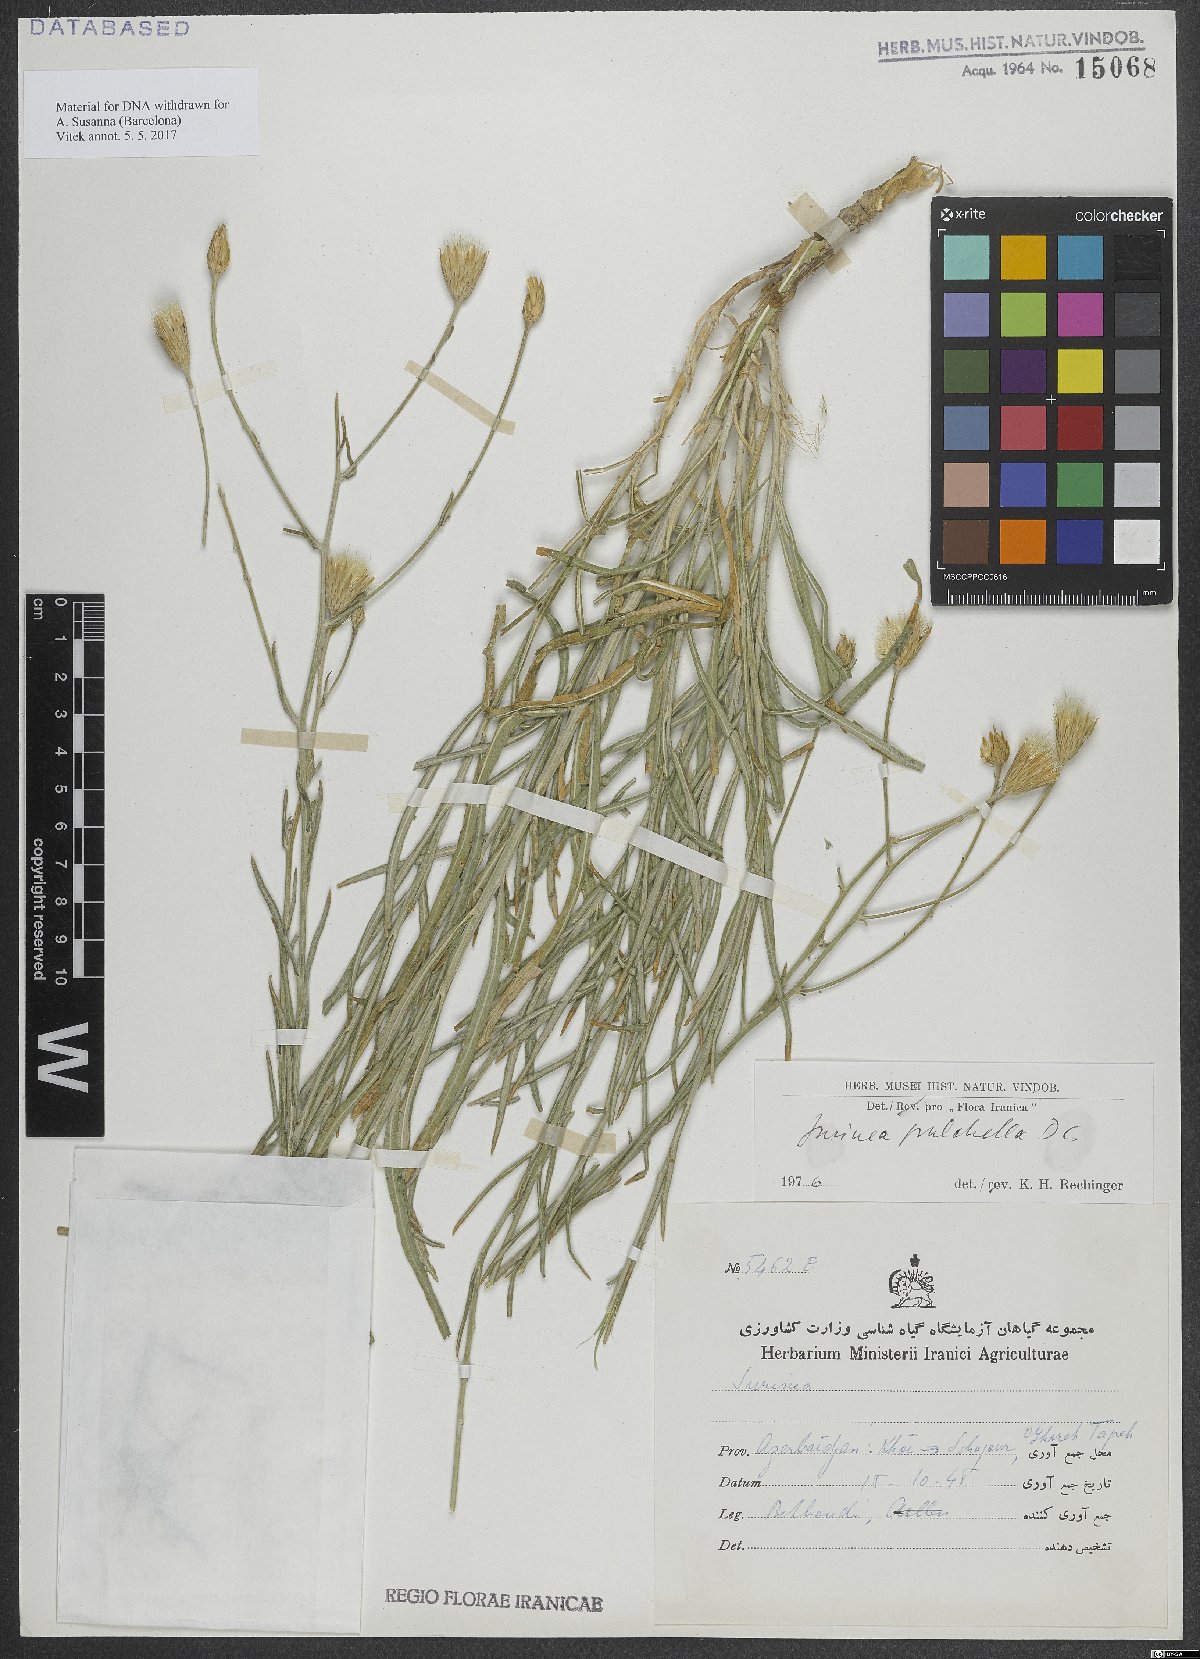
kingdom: Plantae
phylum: Tracheophyta
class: Magnoliopsida
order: Asterales
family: Asteraceae
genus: Jurinea
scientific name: Jurinea pulchella
